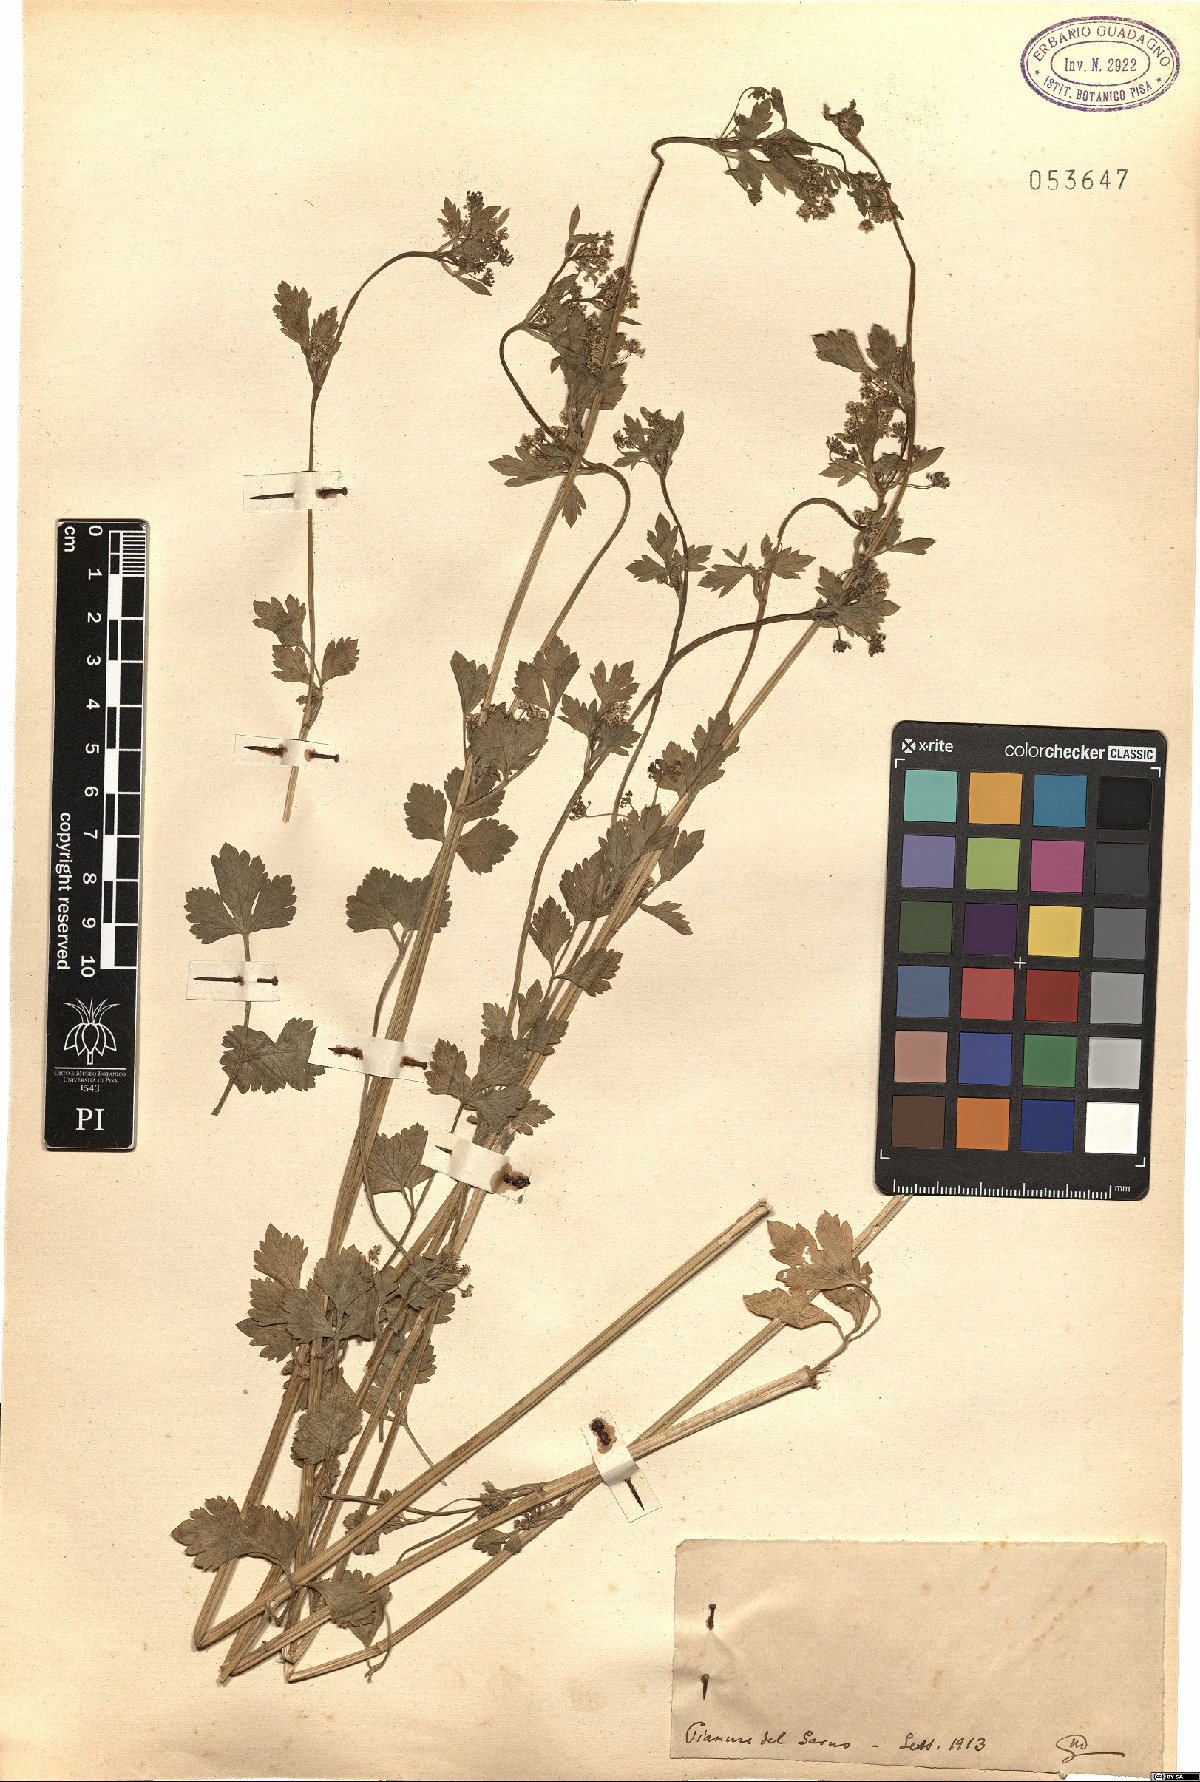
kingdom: Plantae
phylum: Tracheophyta
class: Magnoliopsida
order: Apiales
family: Apiaceae
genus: Apium
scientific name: Apium
